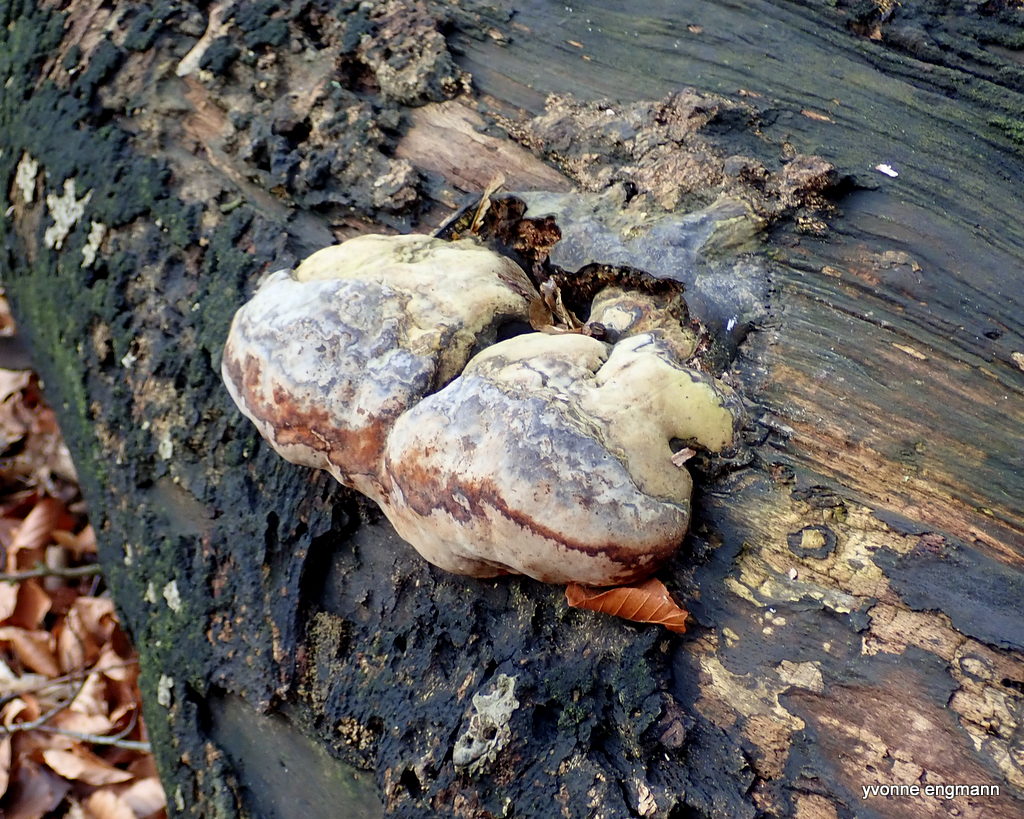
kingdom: Fungi
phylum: Basidiomycota
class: Agaricomycetes
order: Polyporales
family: Polyporaceae
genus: Fomes
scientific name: Fomes fomentarius
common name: tøndersvamp
